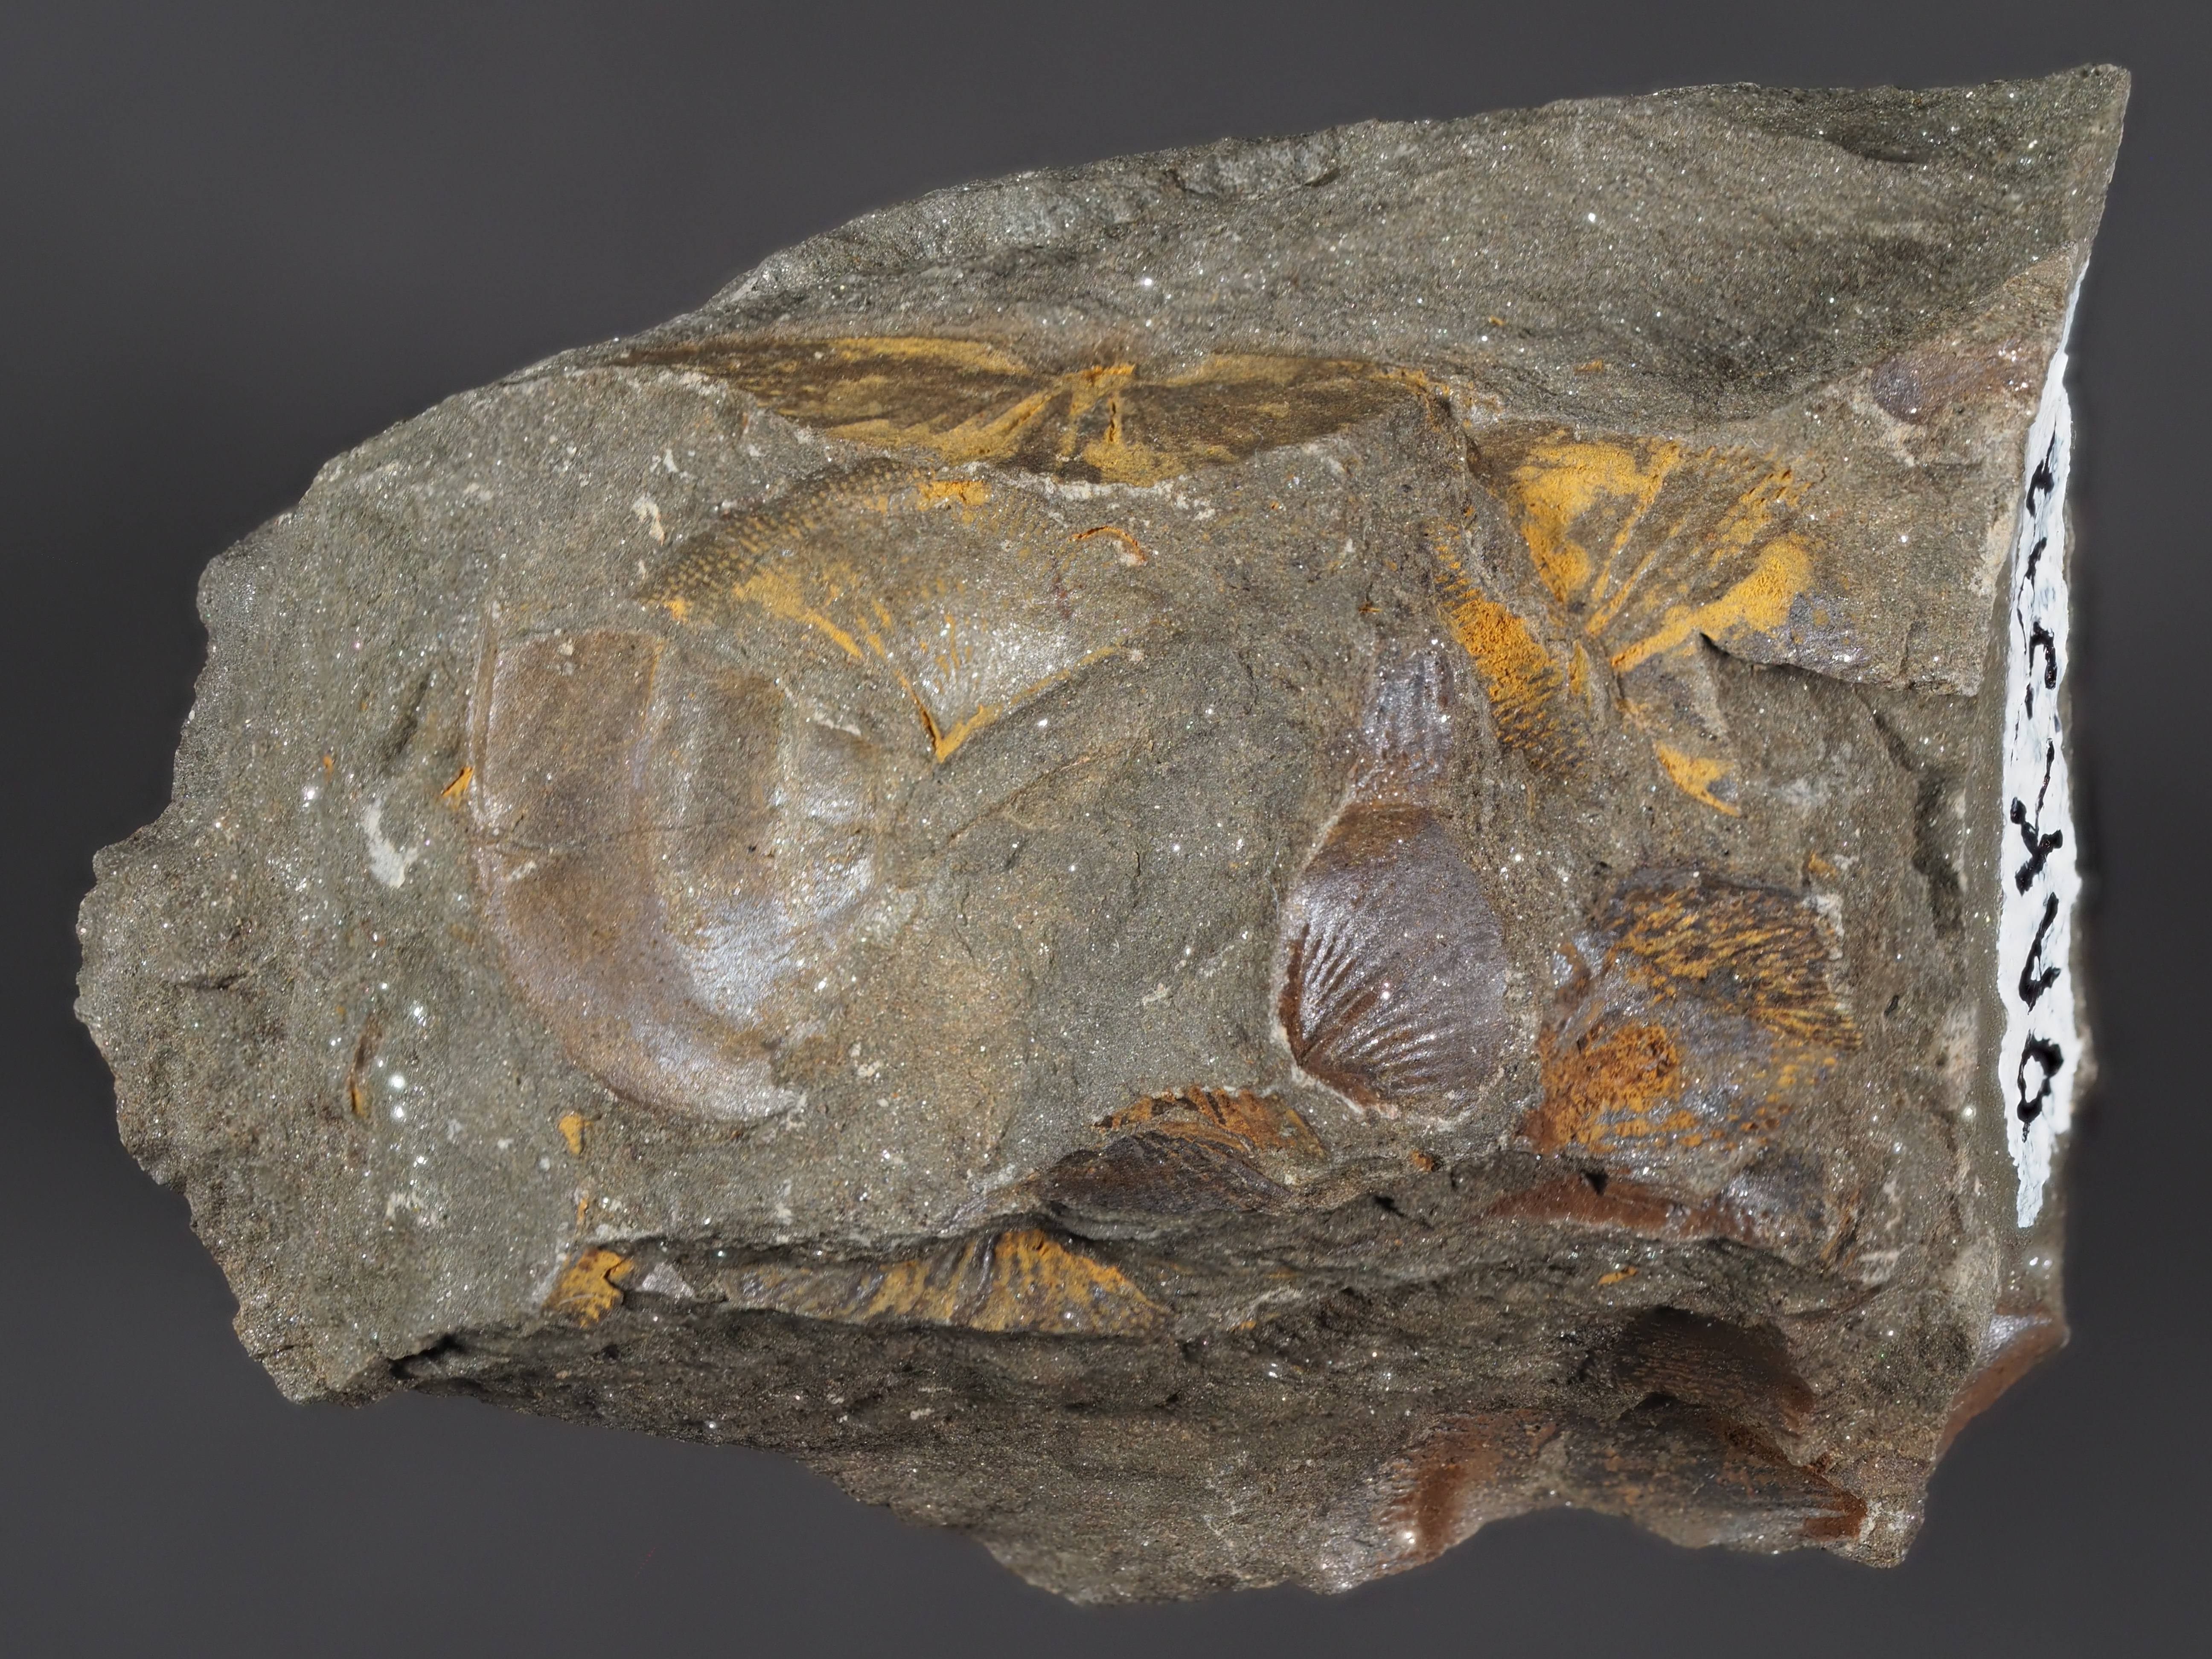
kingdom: Animalia
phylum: Mollusca
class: Bivalvia
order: Nuculanida
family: Malletiidae
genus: Palaeoneilo
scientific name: Palaeoneilo
